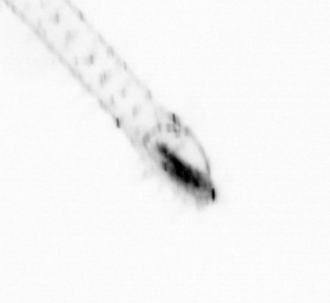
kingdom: Animalia
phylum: Chaetognatha
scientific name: Chaetognatha
